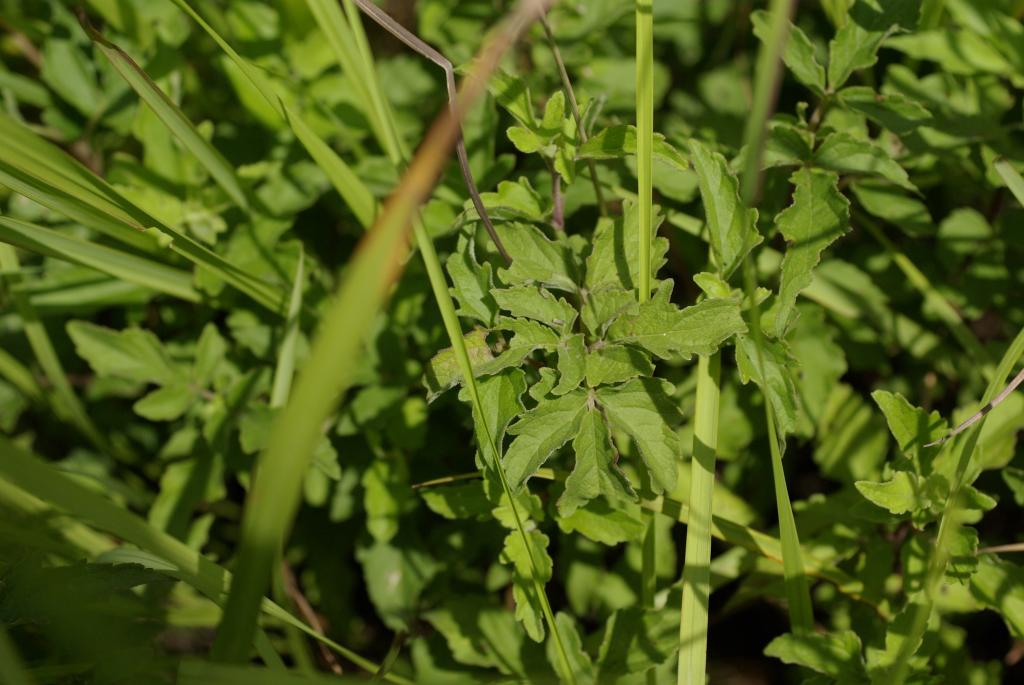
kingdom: Plantae
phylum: Tracheophyta
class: Magnoliopsida
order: Asterales
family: Asteraceae
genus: Eupatorium
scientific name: Eupatorium formosanum
